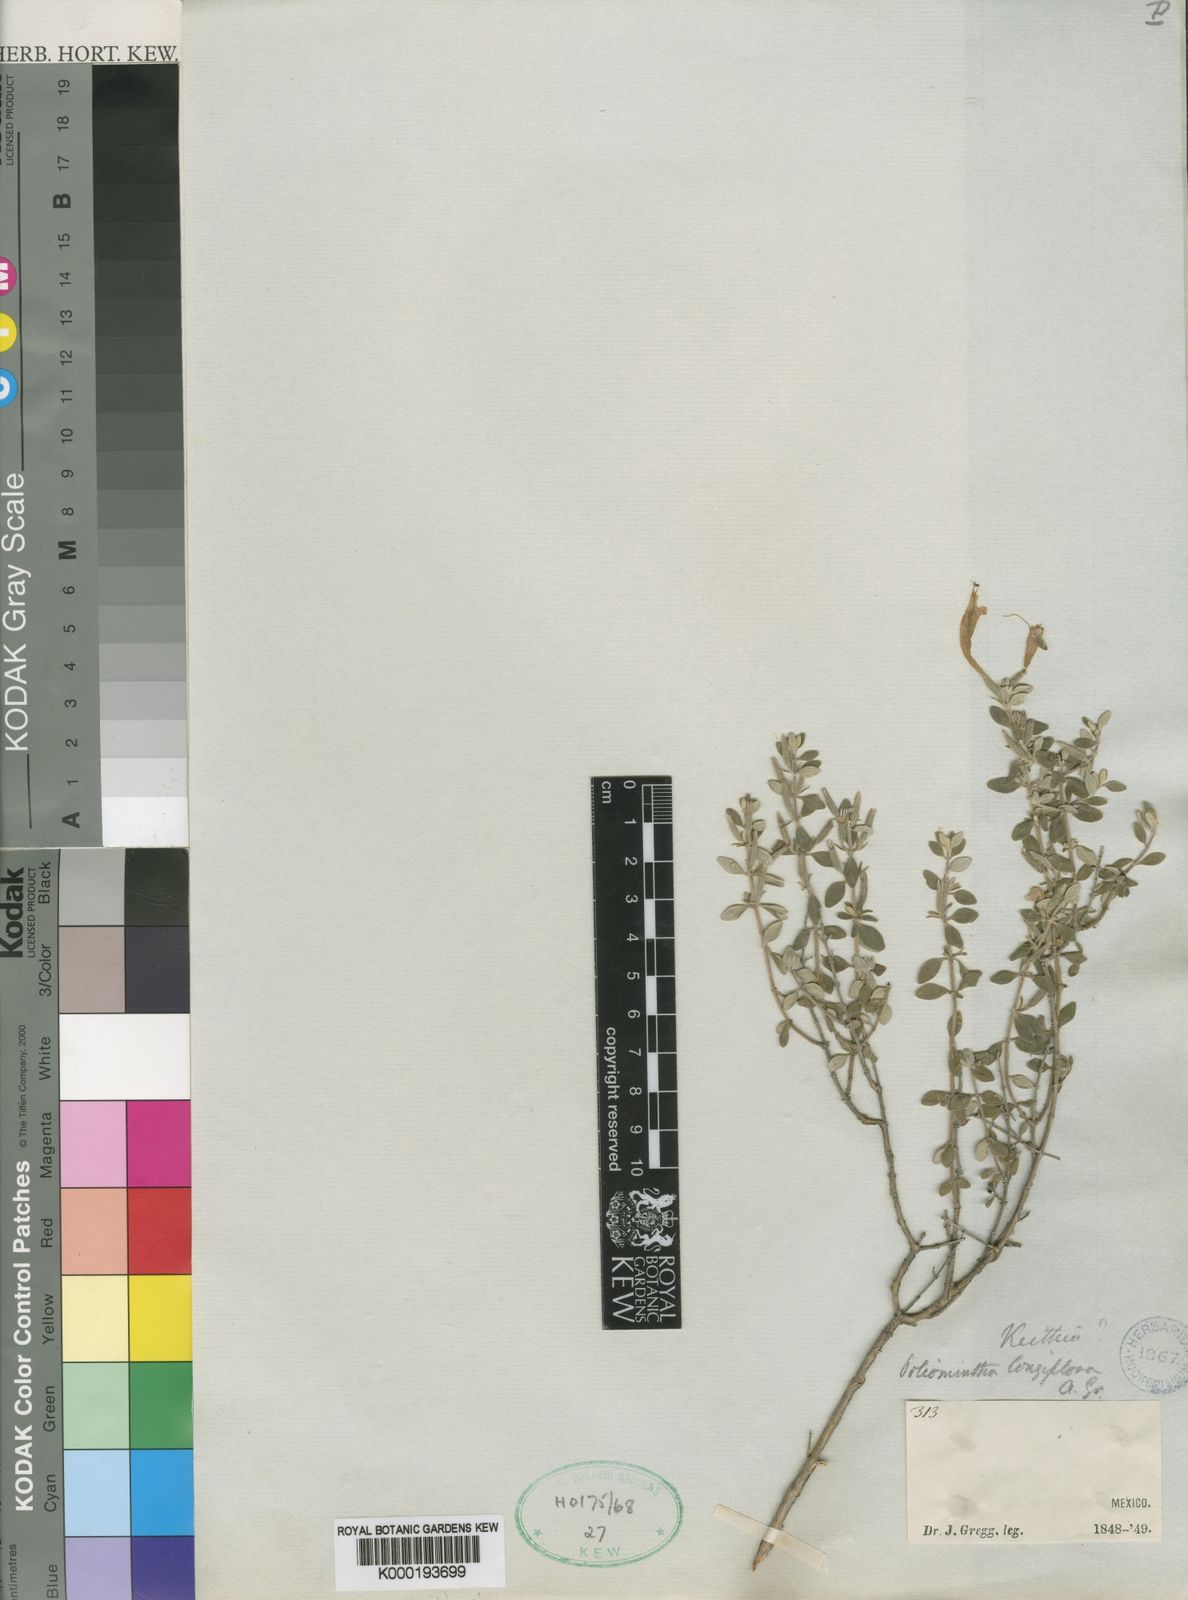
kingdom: Plantae
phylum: Tracheophyta
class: Magnoliopsida
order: Lamiales
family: Lamiaceae
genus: Poliomintha
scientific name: Poliomintha longiflora
